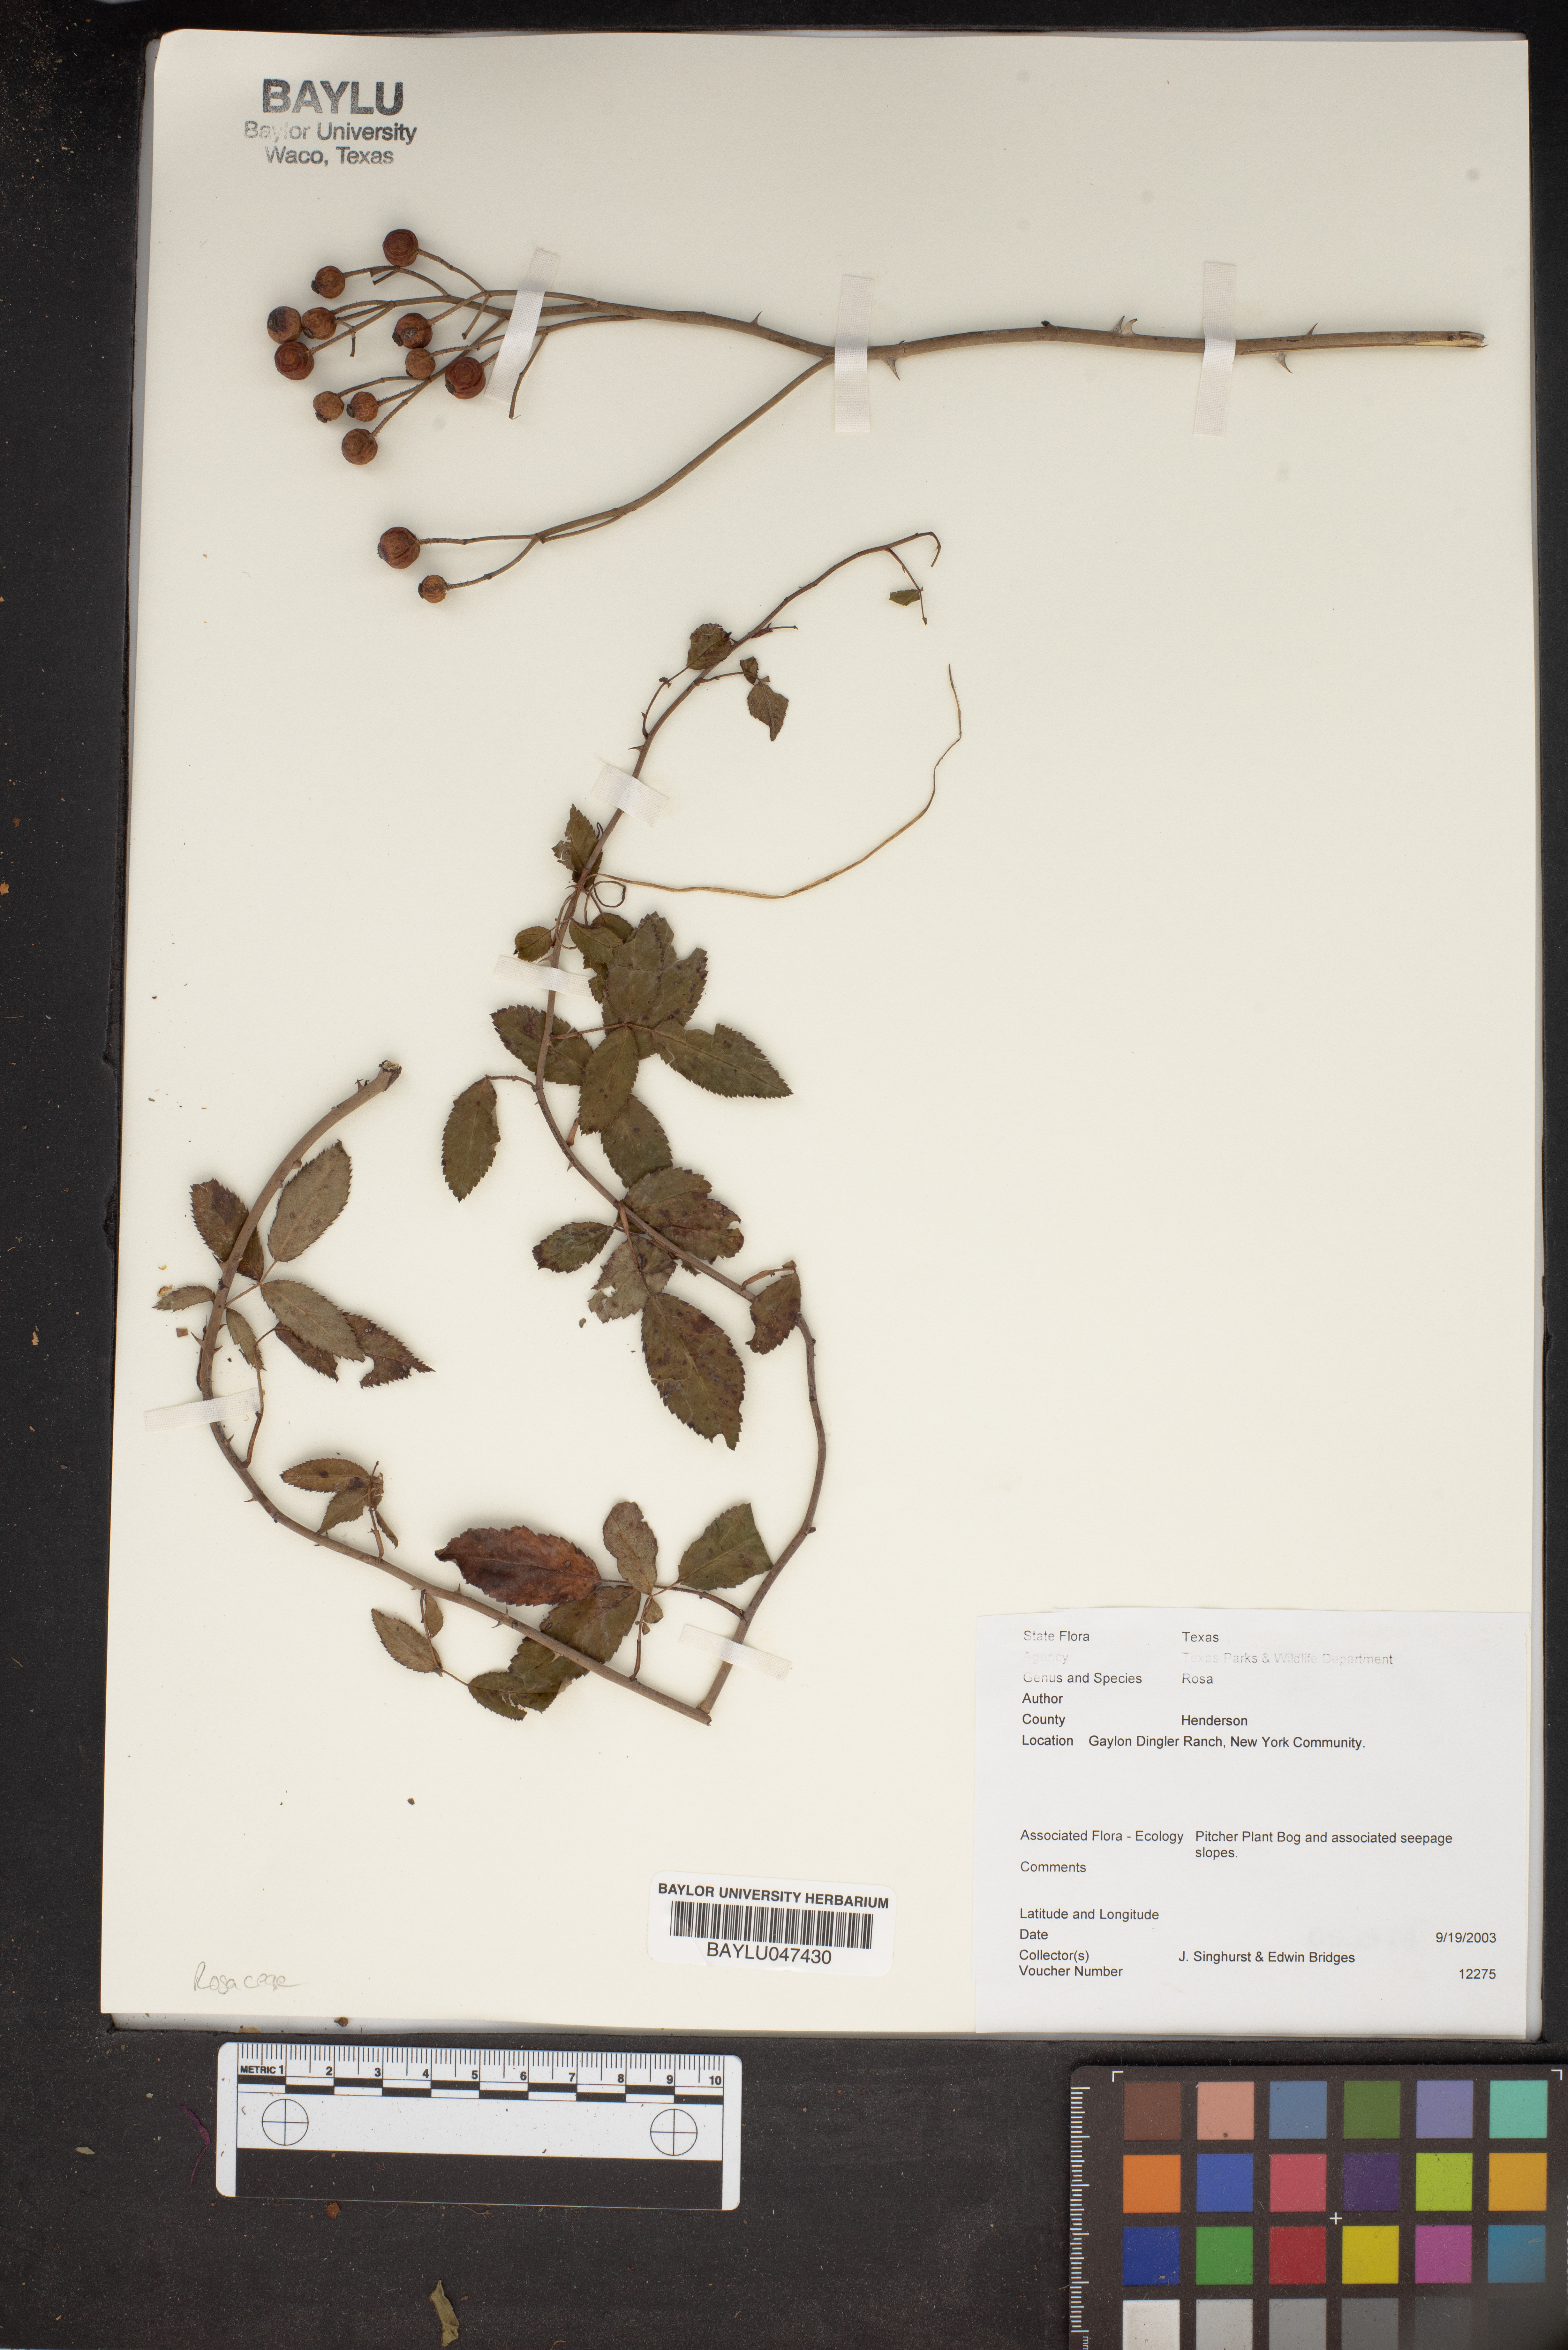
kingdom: Plantae
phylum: Tracheophyta
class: Magnoliopsida
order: Rosales
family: Rosaceae
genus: Rosa
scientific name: Rosa
